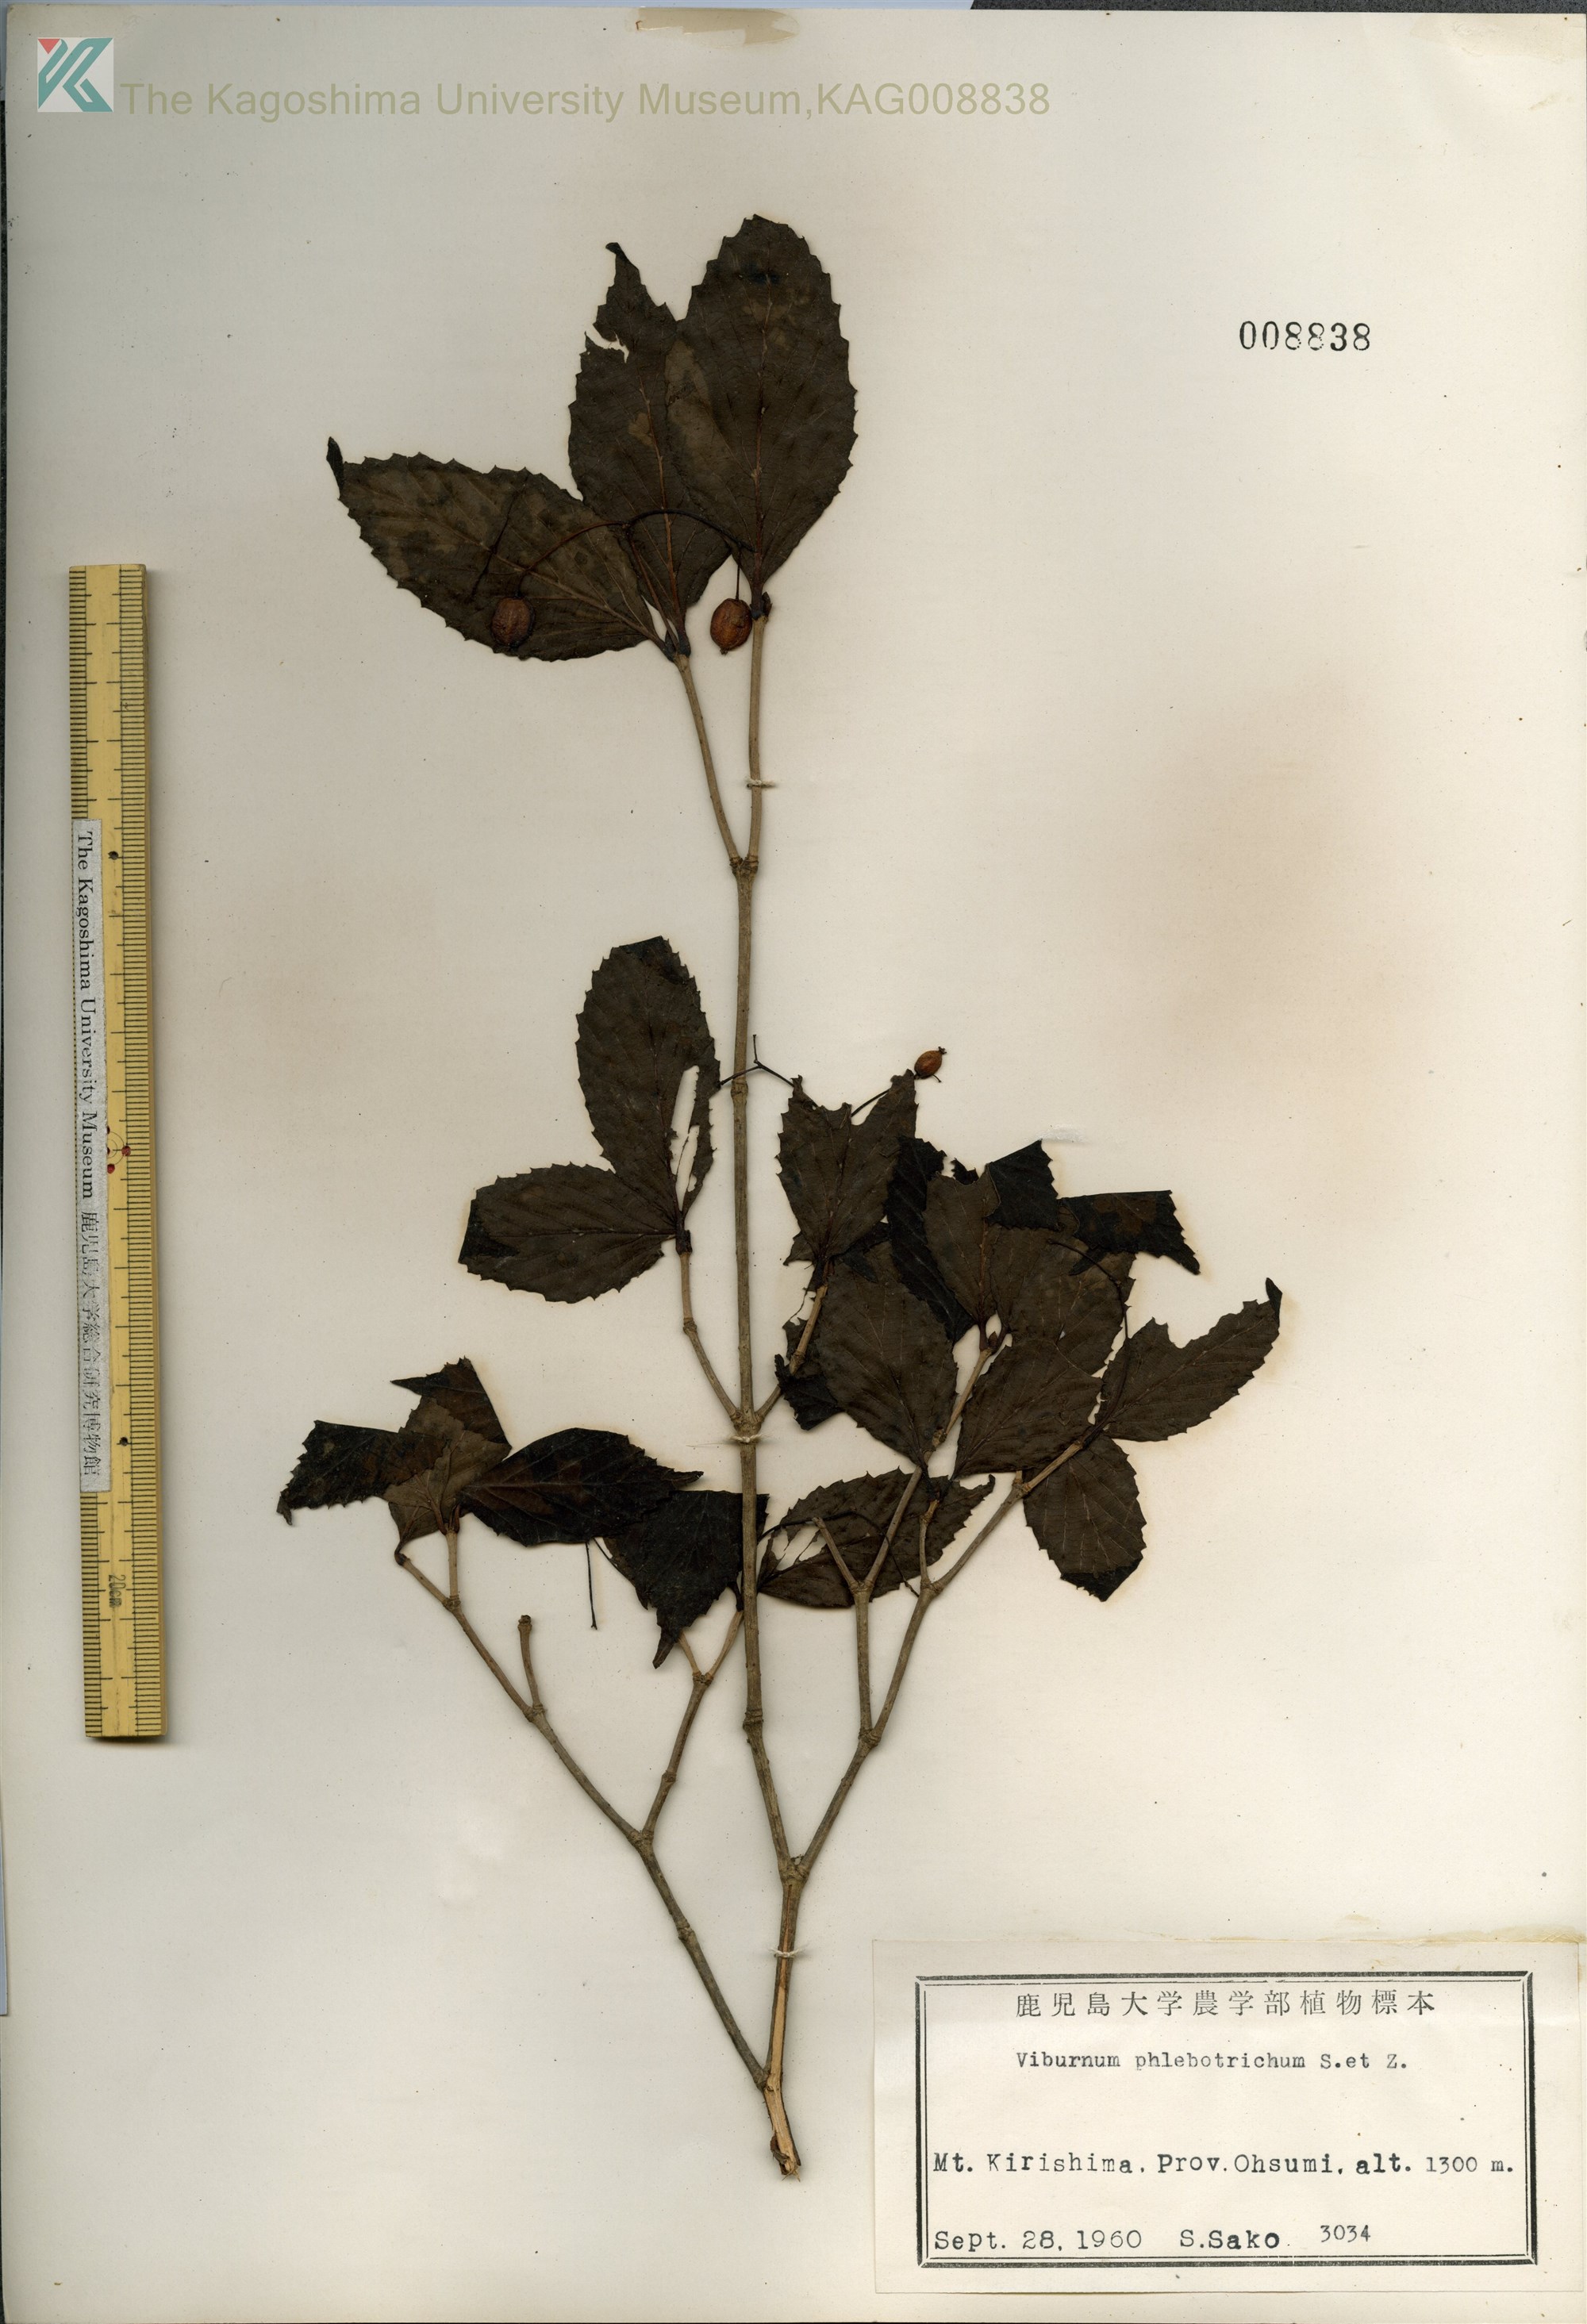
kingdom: Plantae
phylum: Tracheophyta
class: Magnoliopsida
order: Dipsacales
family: Viburnaceae
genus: Viburnum
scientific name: Viburnum phlebotrichum
